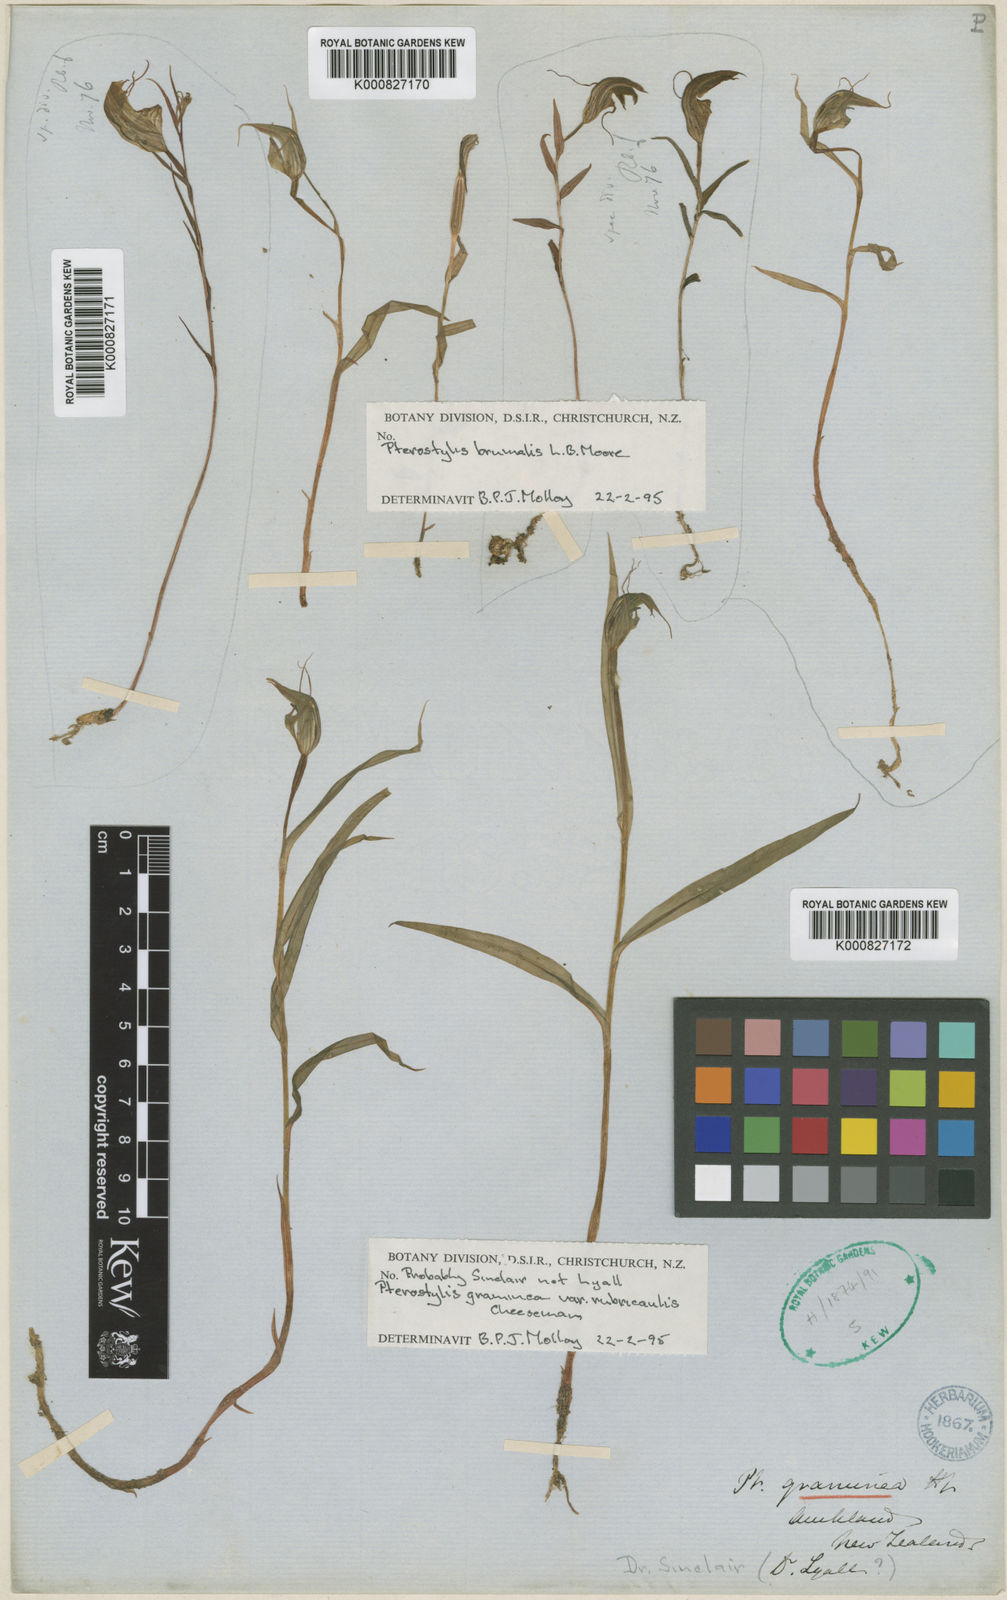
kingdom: Plantae
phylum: Tracheophyta
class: Liliopsida
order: Asparagales
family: Orchidaceae
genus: Pterostylis
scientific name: Pterostylis graminea
